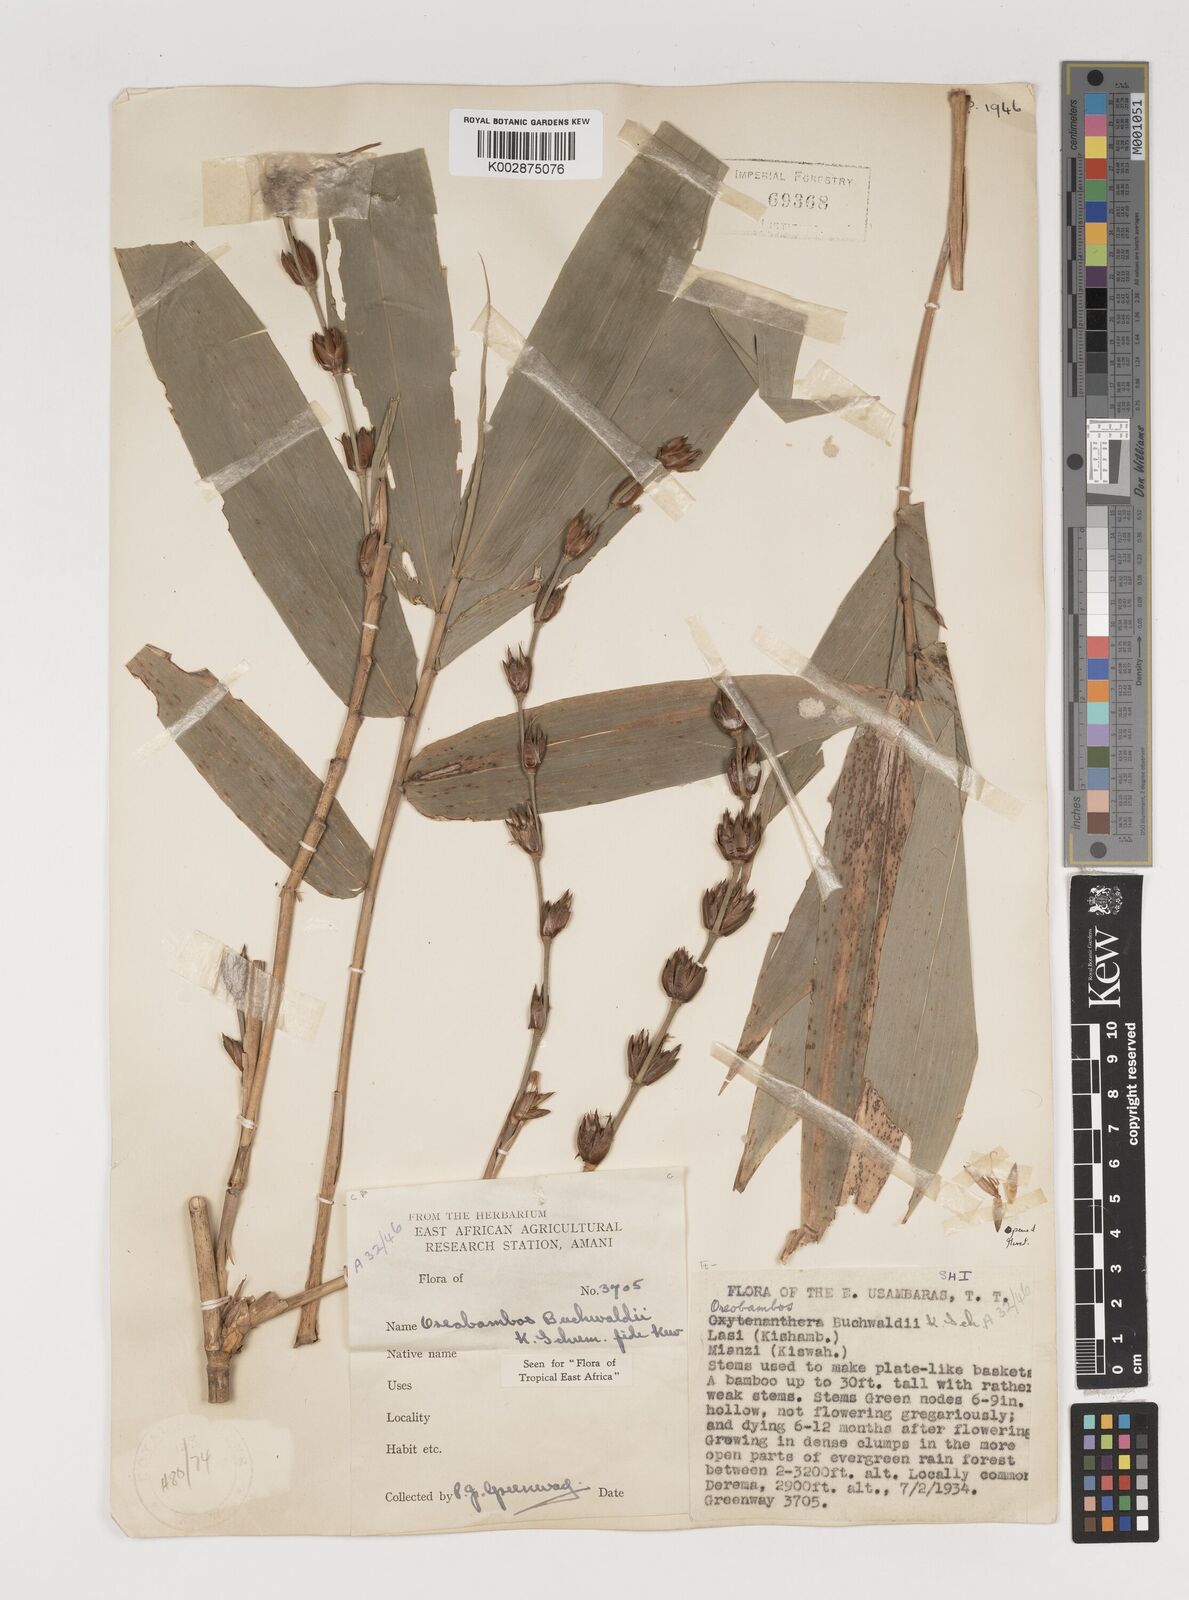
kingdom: Plantae
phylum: Tracheophyta
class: Liliopsida
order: Poales
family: Poaceae
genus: Oreobambos
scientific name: Oreobambos buchwaldii
